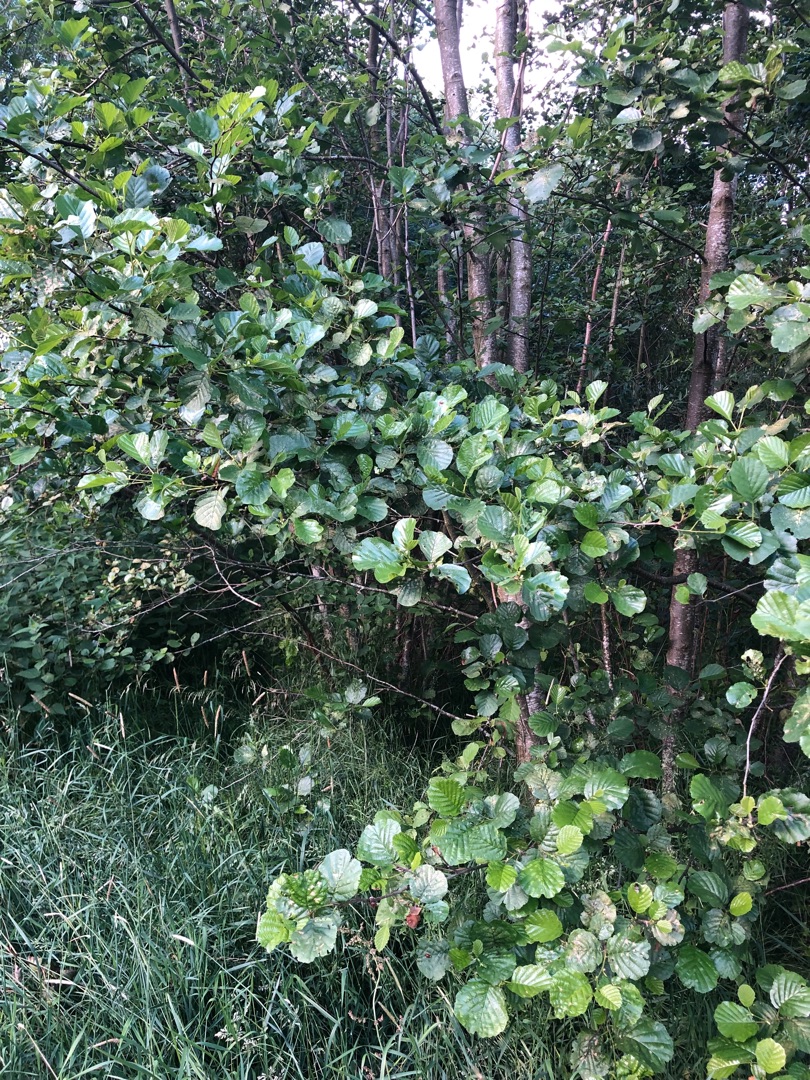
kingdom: Plantae
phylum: Tracheophyta
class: Magnoliopsida
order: Fagales
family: Betulaceae
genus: Alnus
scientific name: Alnus glutinosa
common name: Rød-el
